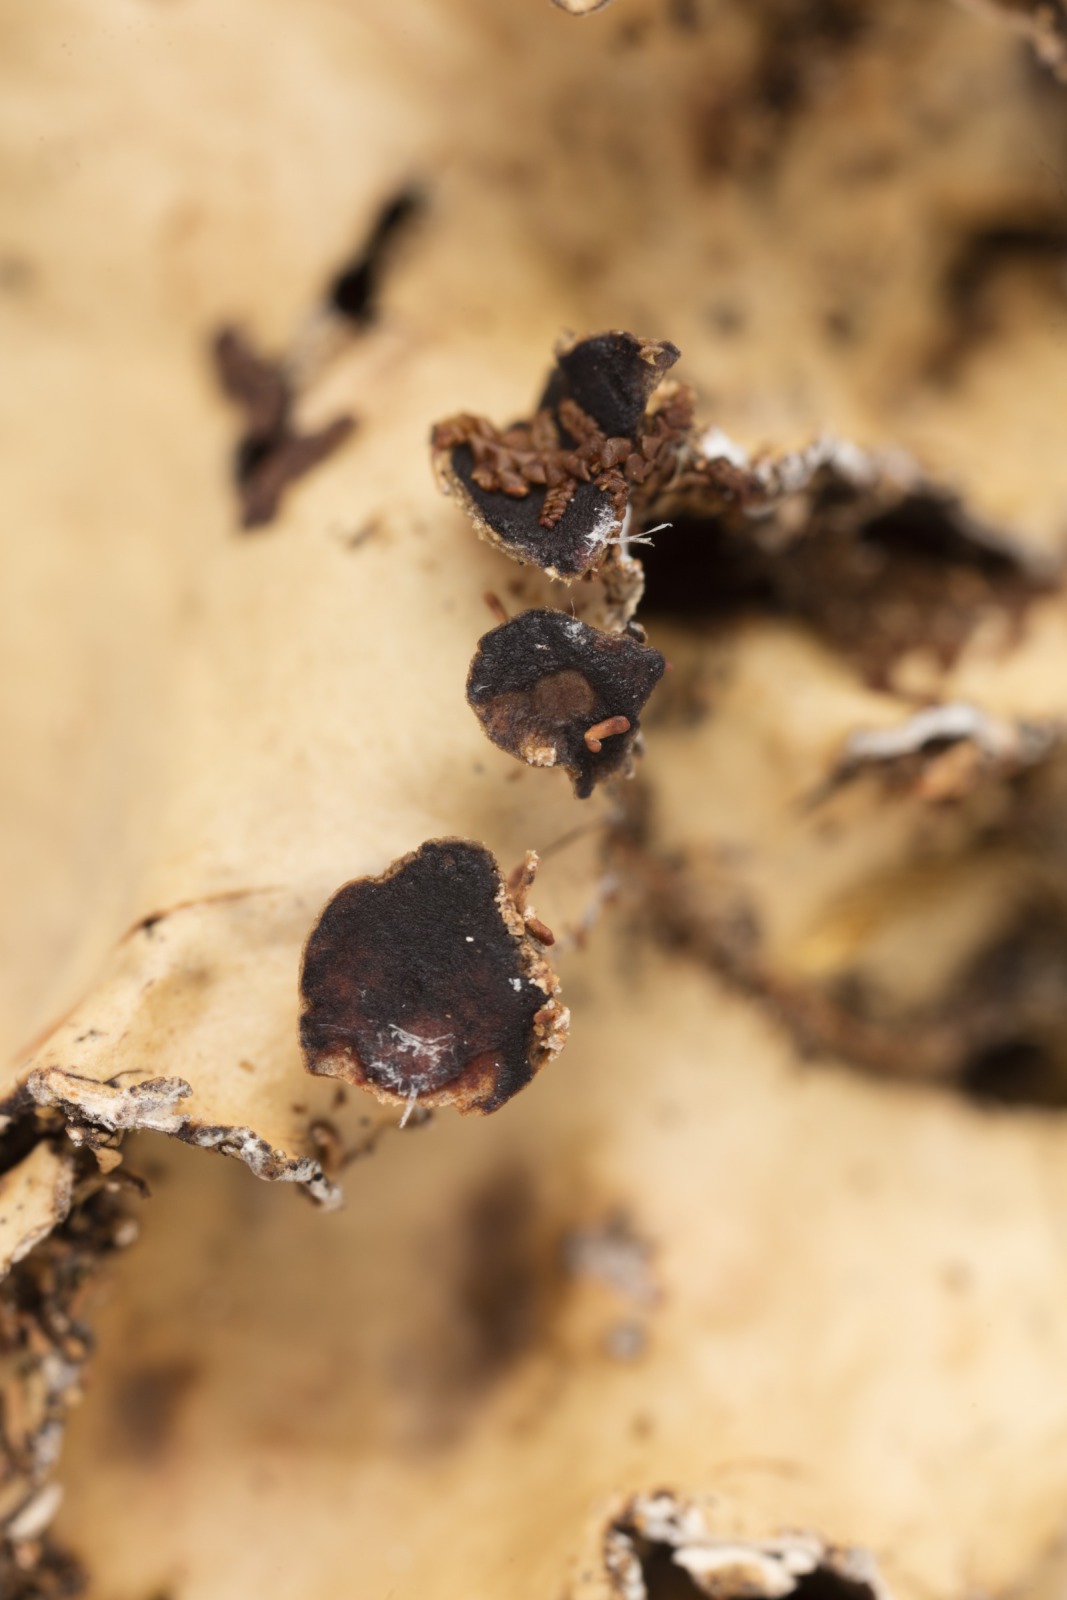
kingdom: Fungi
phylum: Ascomycota
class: Lecanoromycetes
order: Peltigerales
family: Lobariaceae
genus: Pseudocyphellaria
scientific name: Pseudocyphellaria chloroleuca
